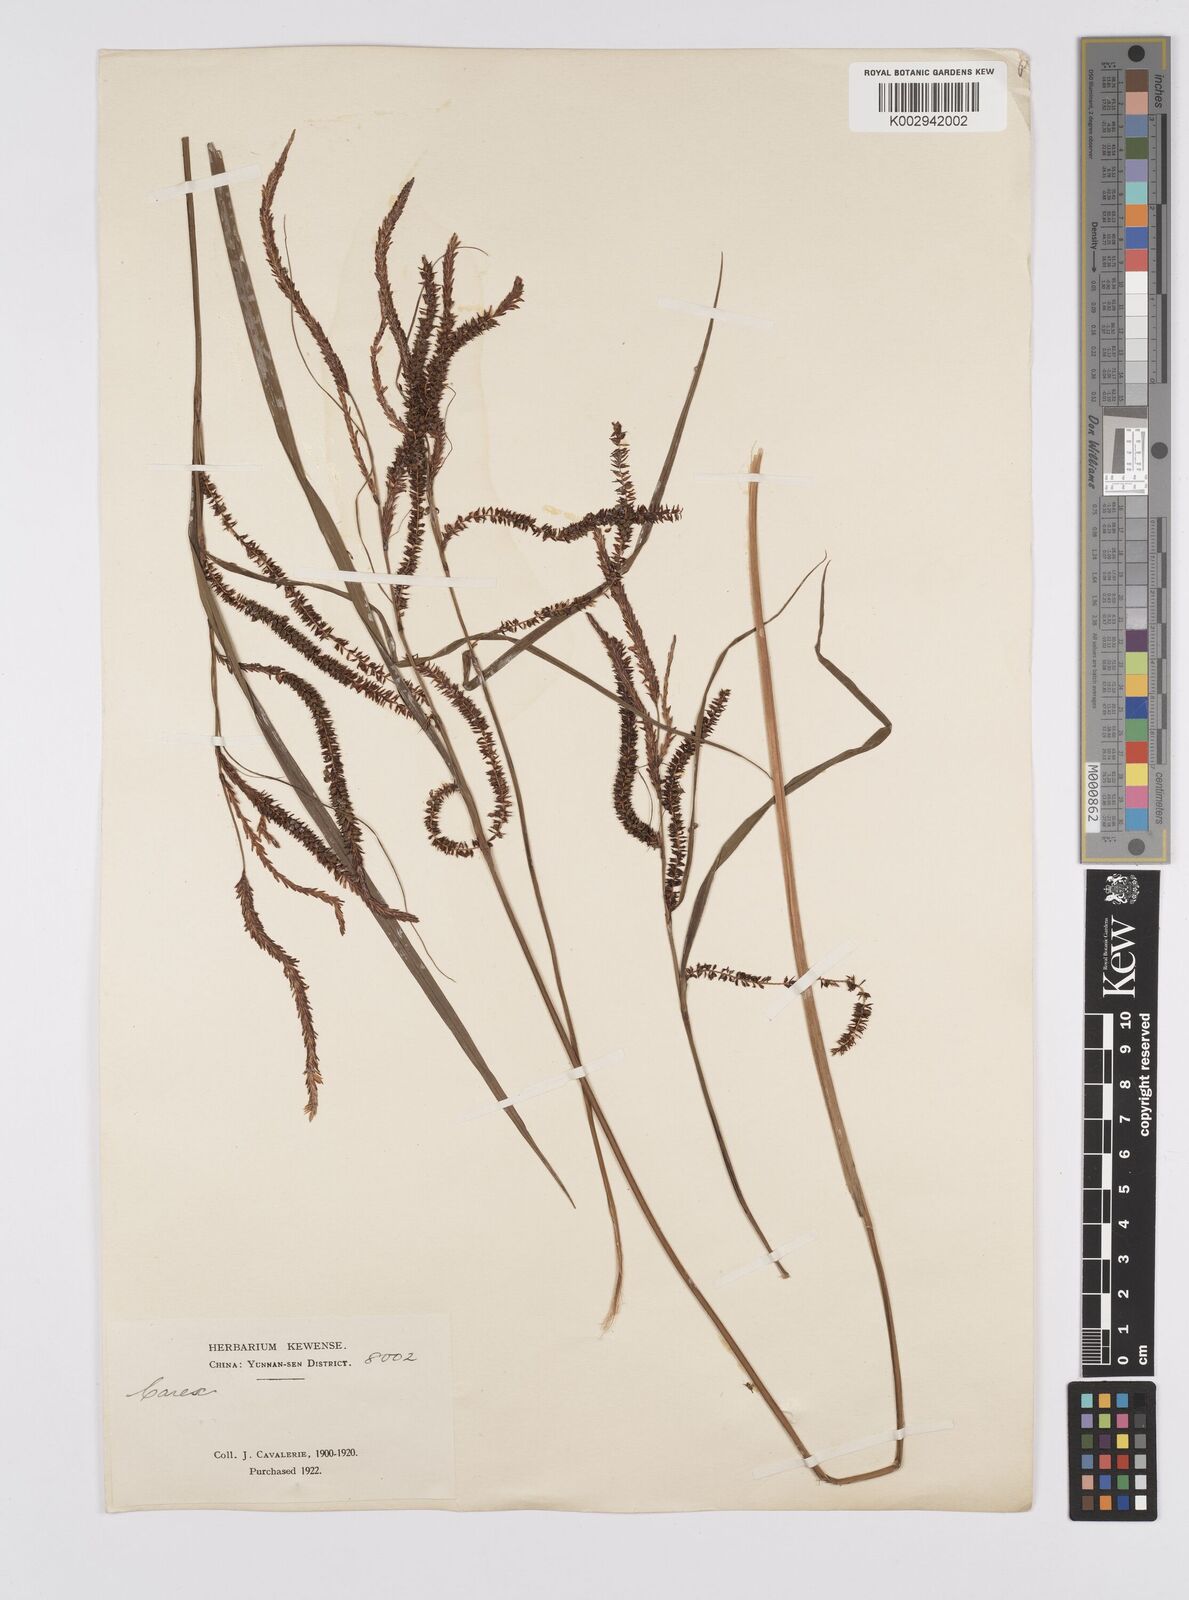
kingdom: Plantae
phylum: Tracheophyta
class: Liliopsida
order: Poales
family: Cyperaceae
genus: Carex
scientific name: Carex dispalata
